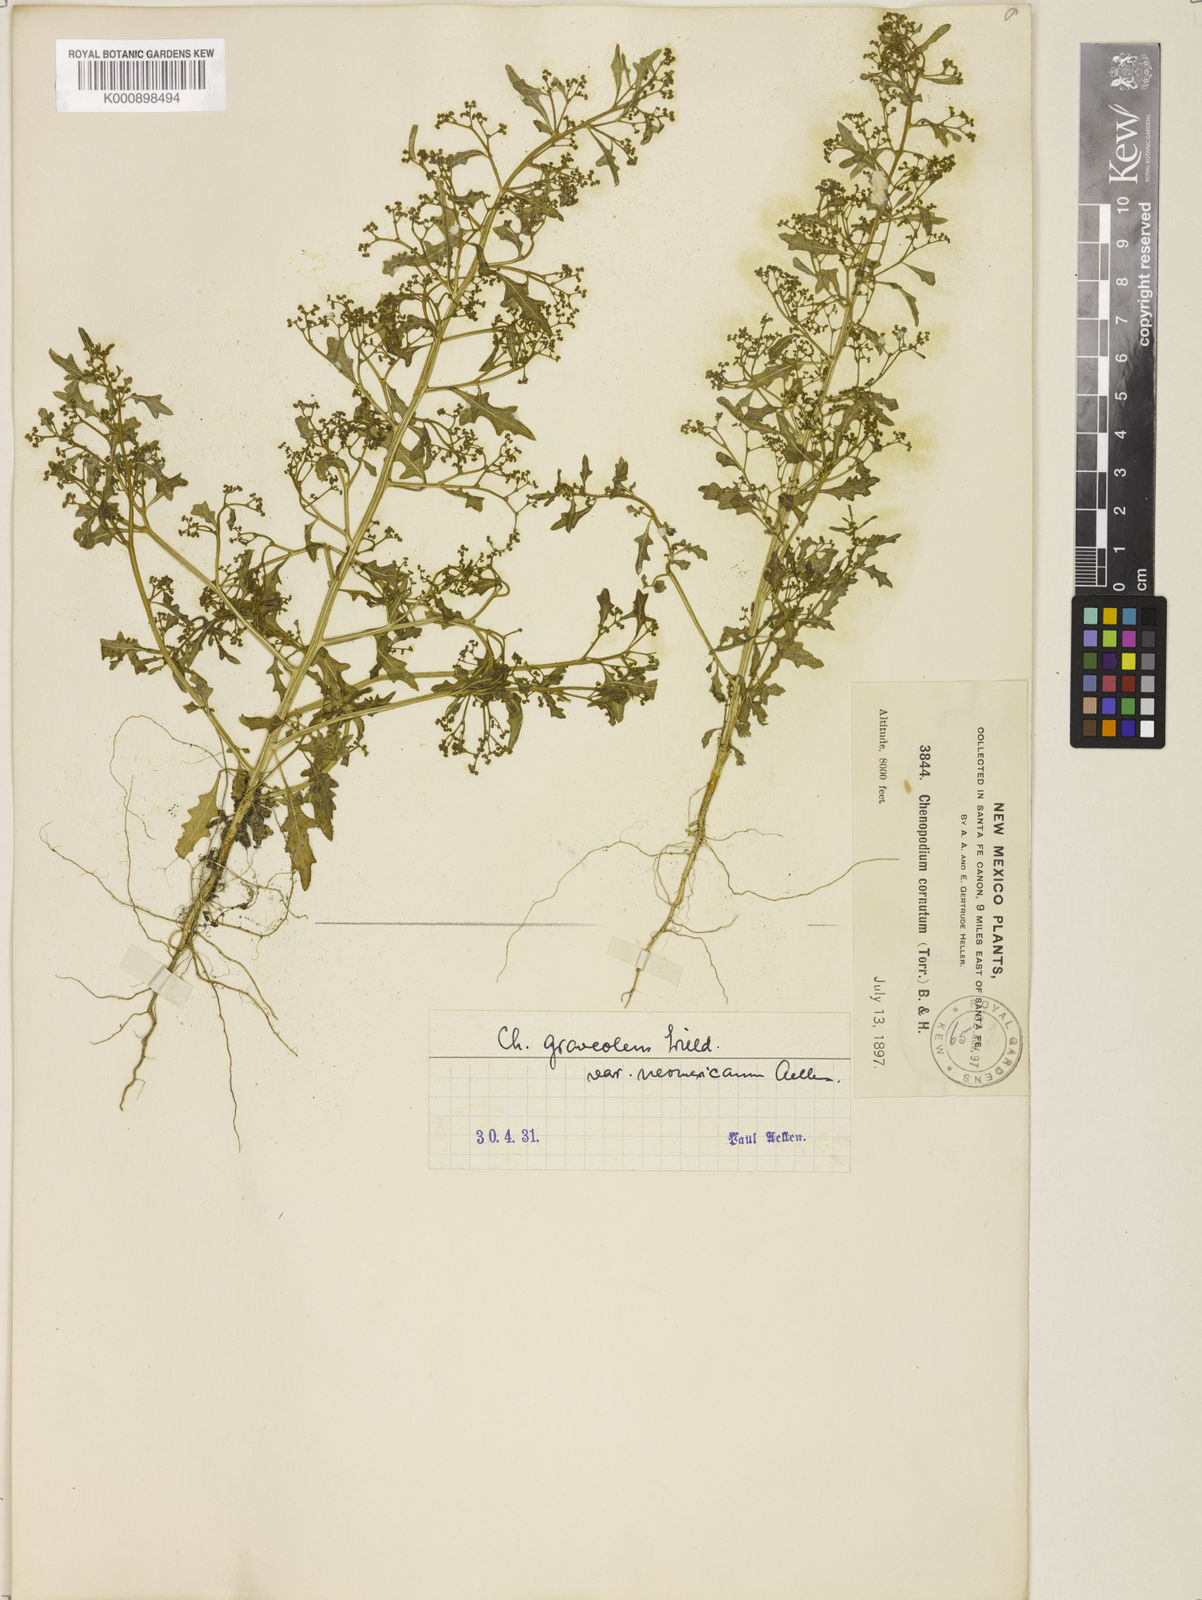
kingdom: Plantae
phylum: Tracheophyta
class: Magnoliopsida
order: Caryophyllales
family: Amaranthaceae
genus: Dysphania
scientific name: Dysphania graveolens
